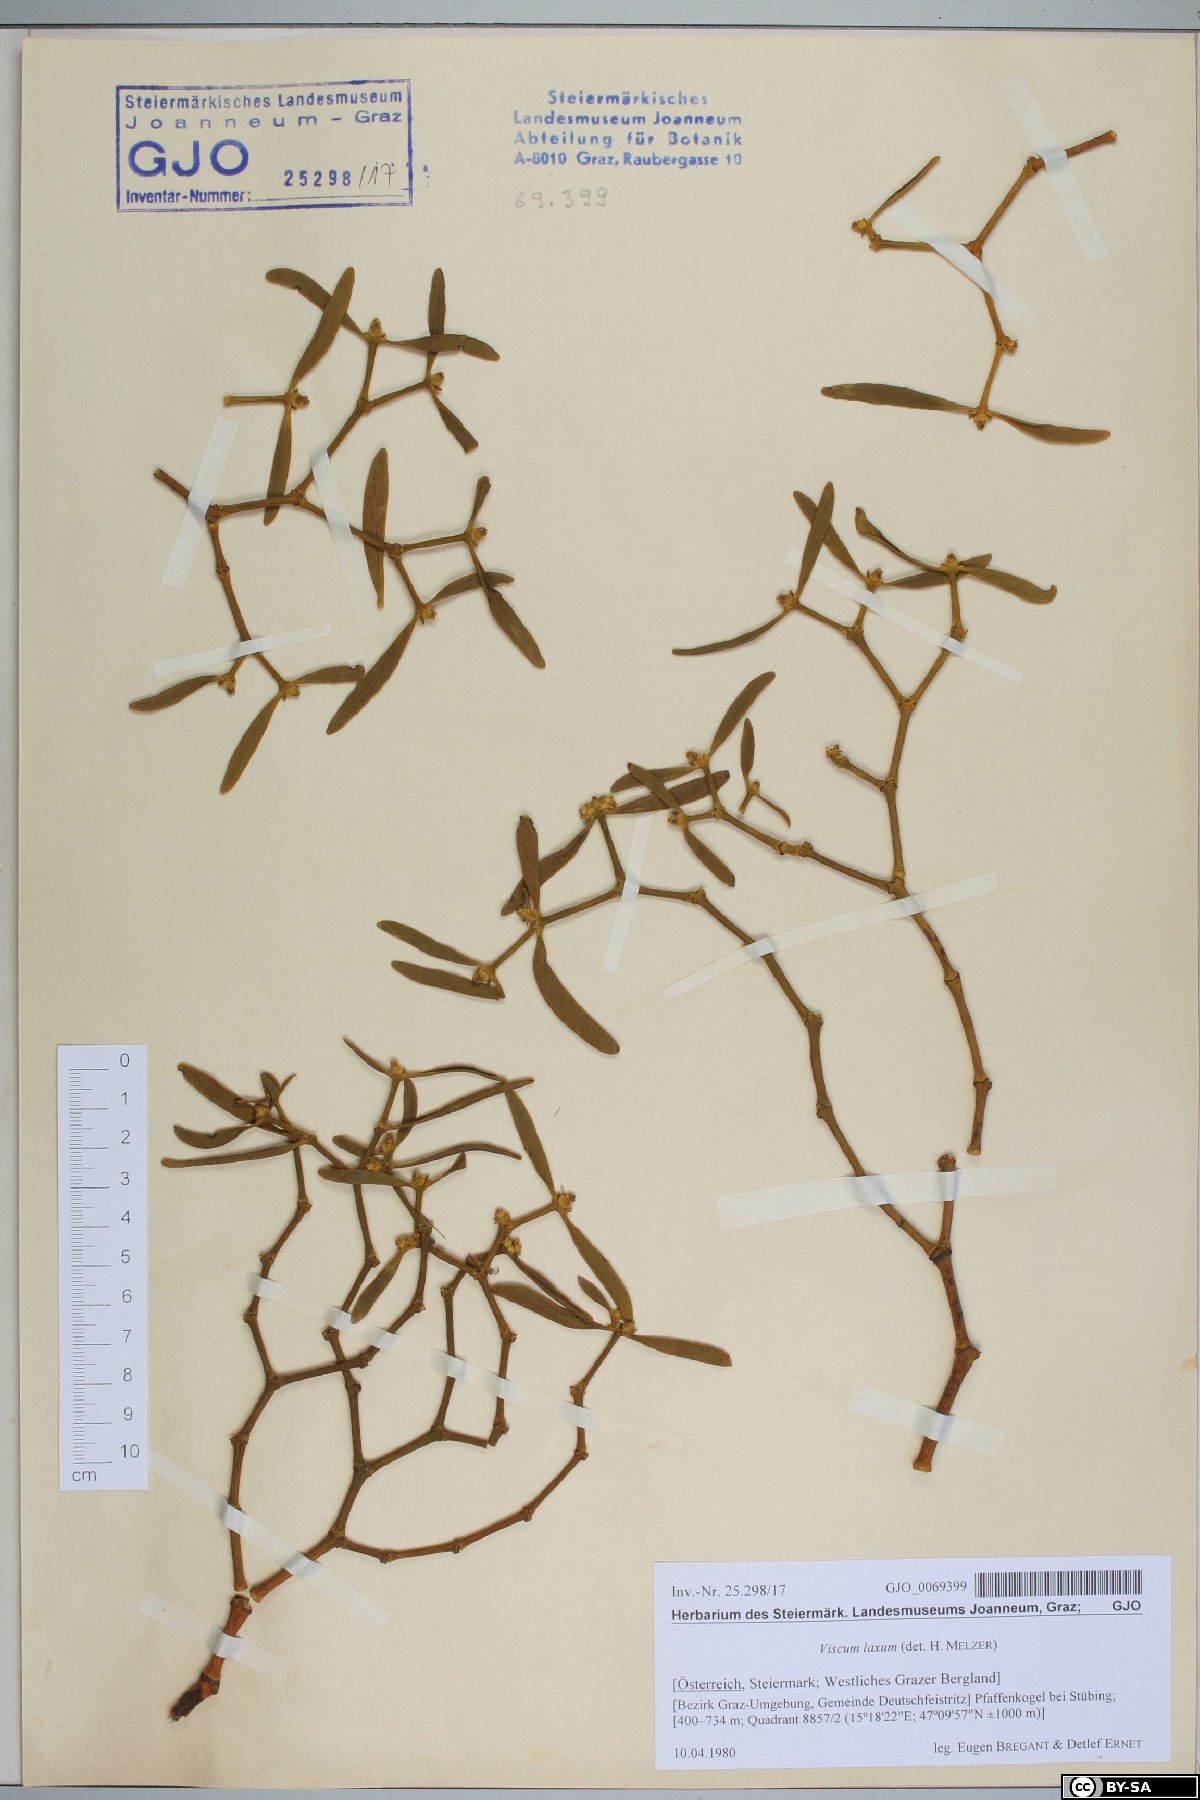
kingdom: Plantae
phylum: Tracheophyta
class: Magnoliopsida
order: Santalales
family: Viscaceae
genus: Viscum
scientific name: Viscum laxum
